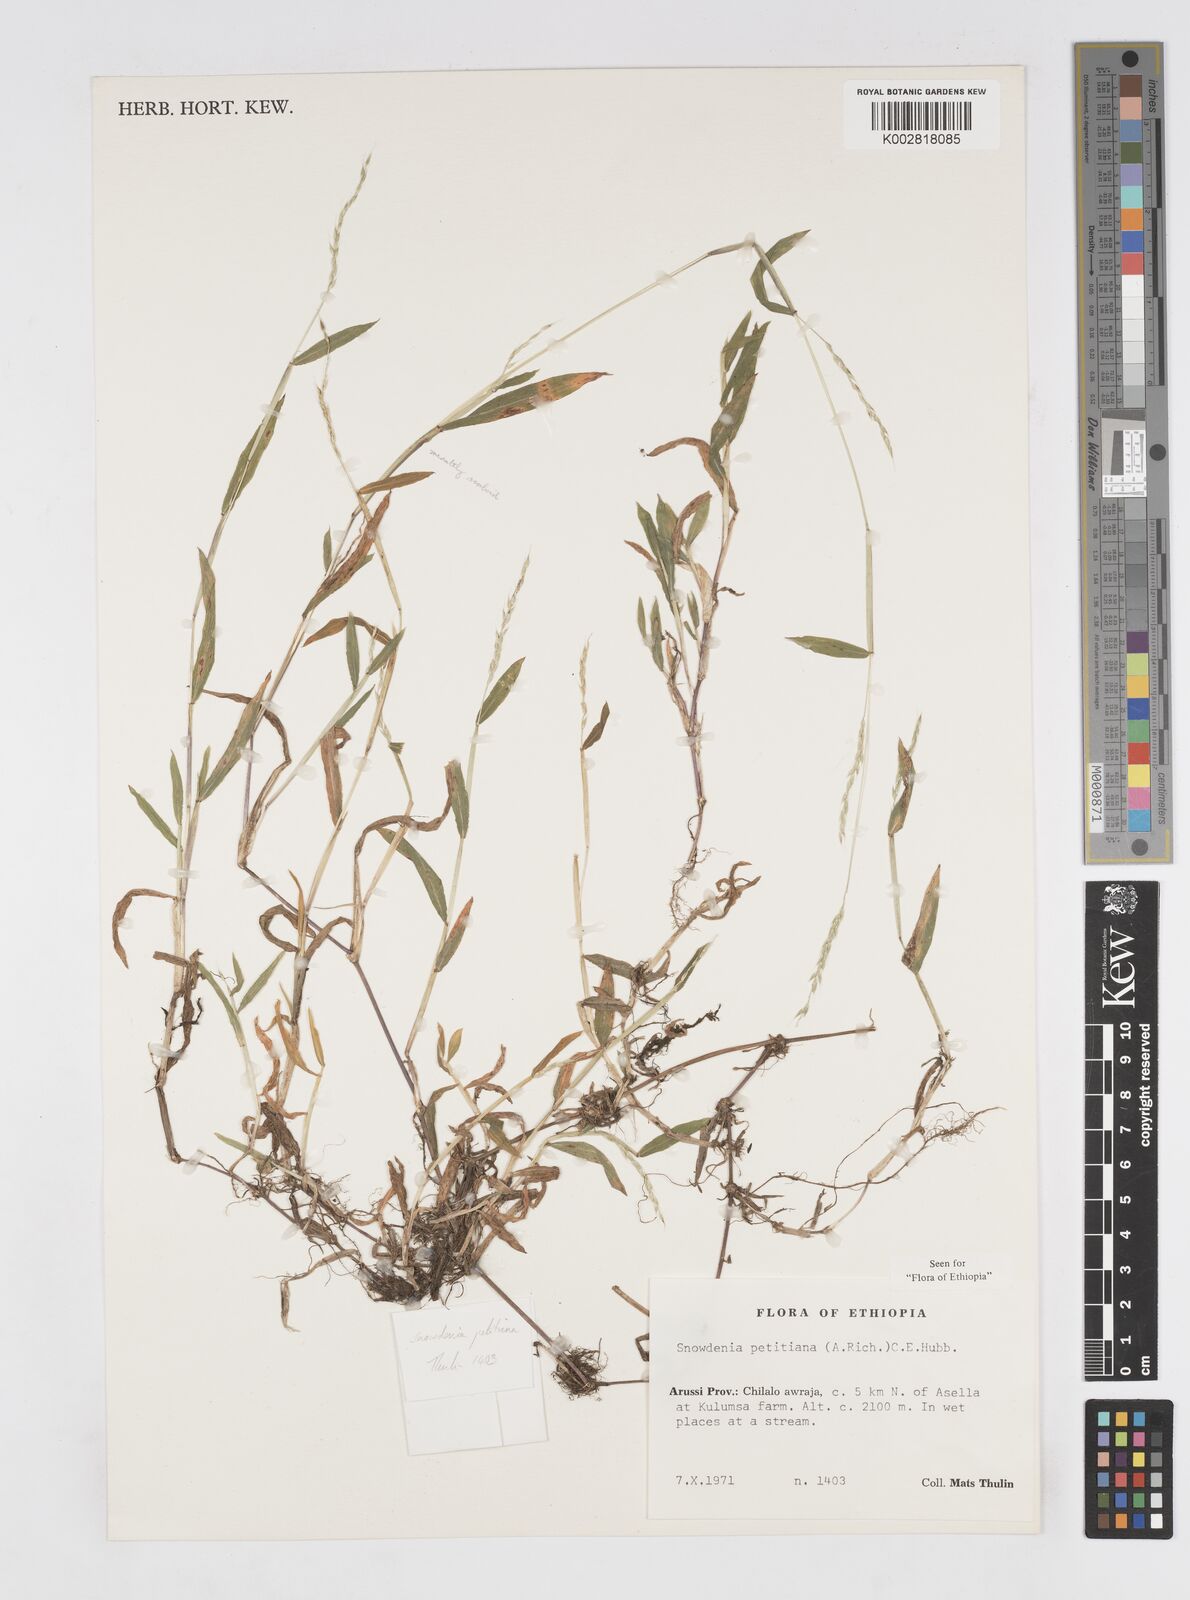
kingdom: Plantae
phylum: Tracheophyta
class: Liliopsida
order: Poales
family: Poaceae
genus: Snowdenia
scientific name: Snowdenia petitiana
